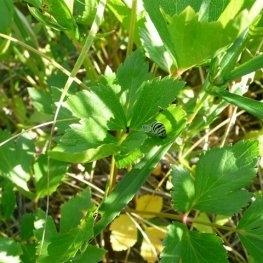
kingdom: Animalia
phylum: Arthropoda
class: Insecta
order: Lepidoptera
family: Papilionidae
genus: Papilio
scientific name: Papilio brevicauda
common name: Short-tailed Swallowtail
